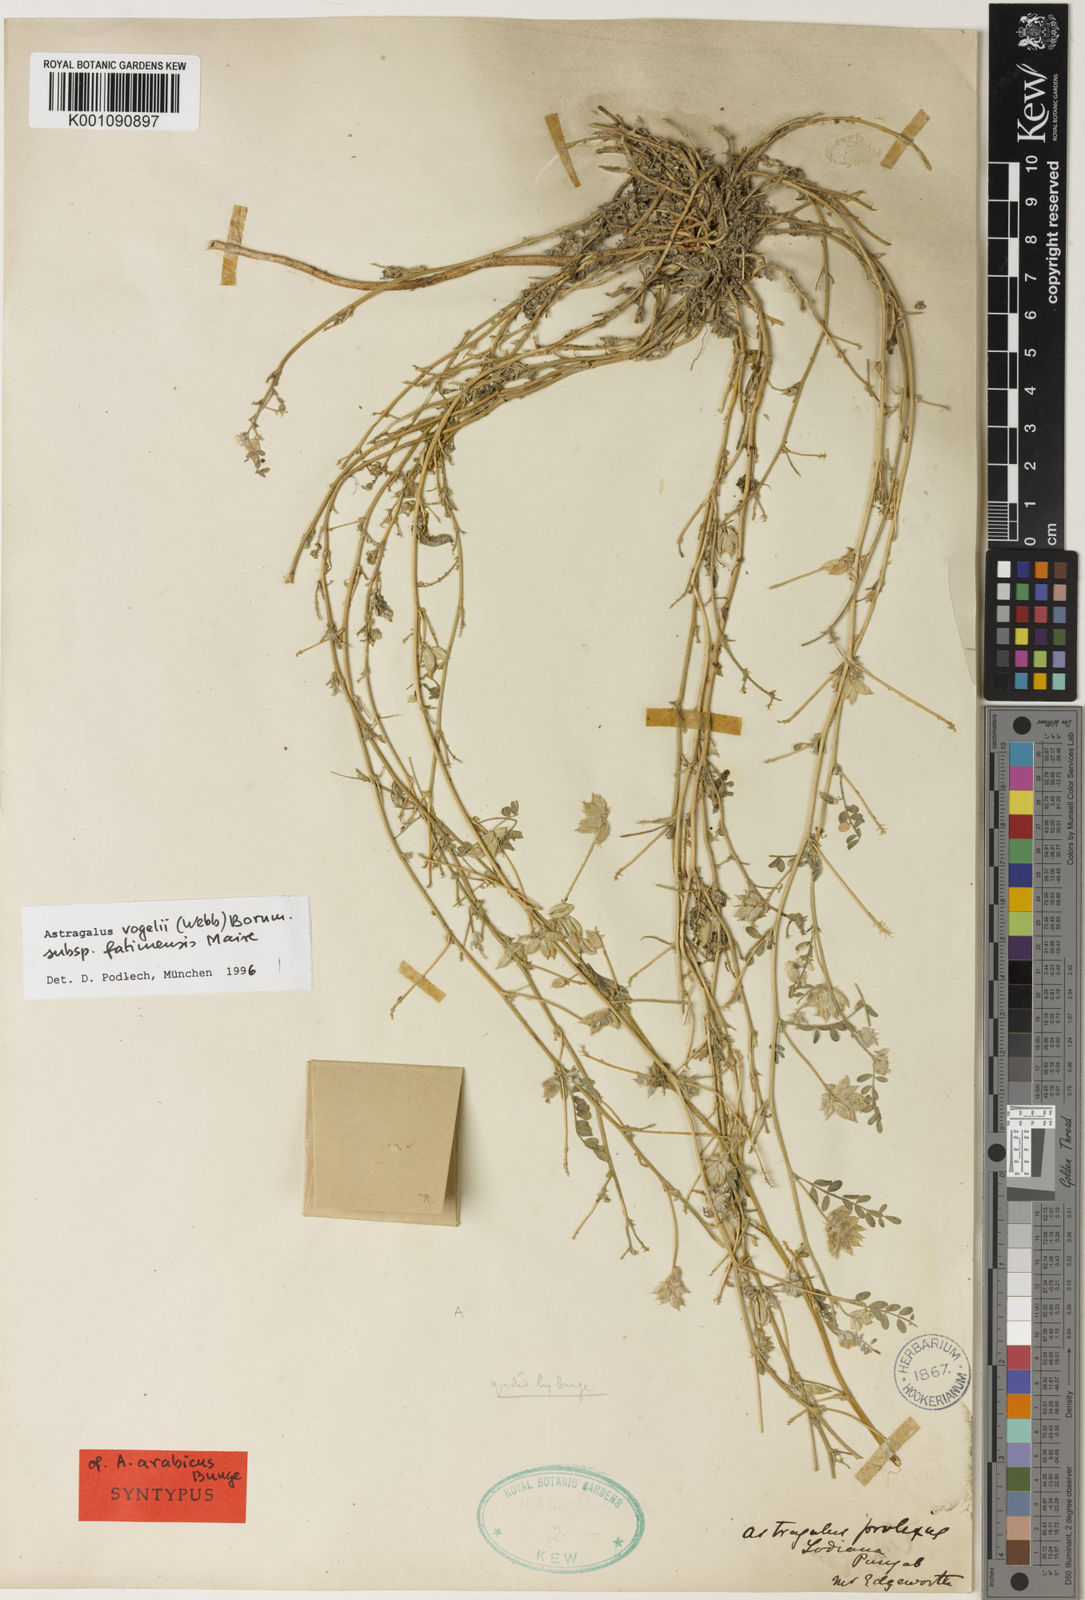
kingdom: Plantae
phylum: Tracheophyta
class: Magnoliopsida
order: Fabales
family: Fabaceae
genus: Astragalus
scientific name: Astragalus vogelii
